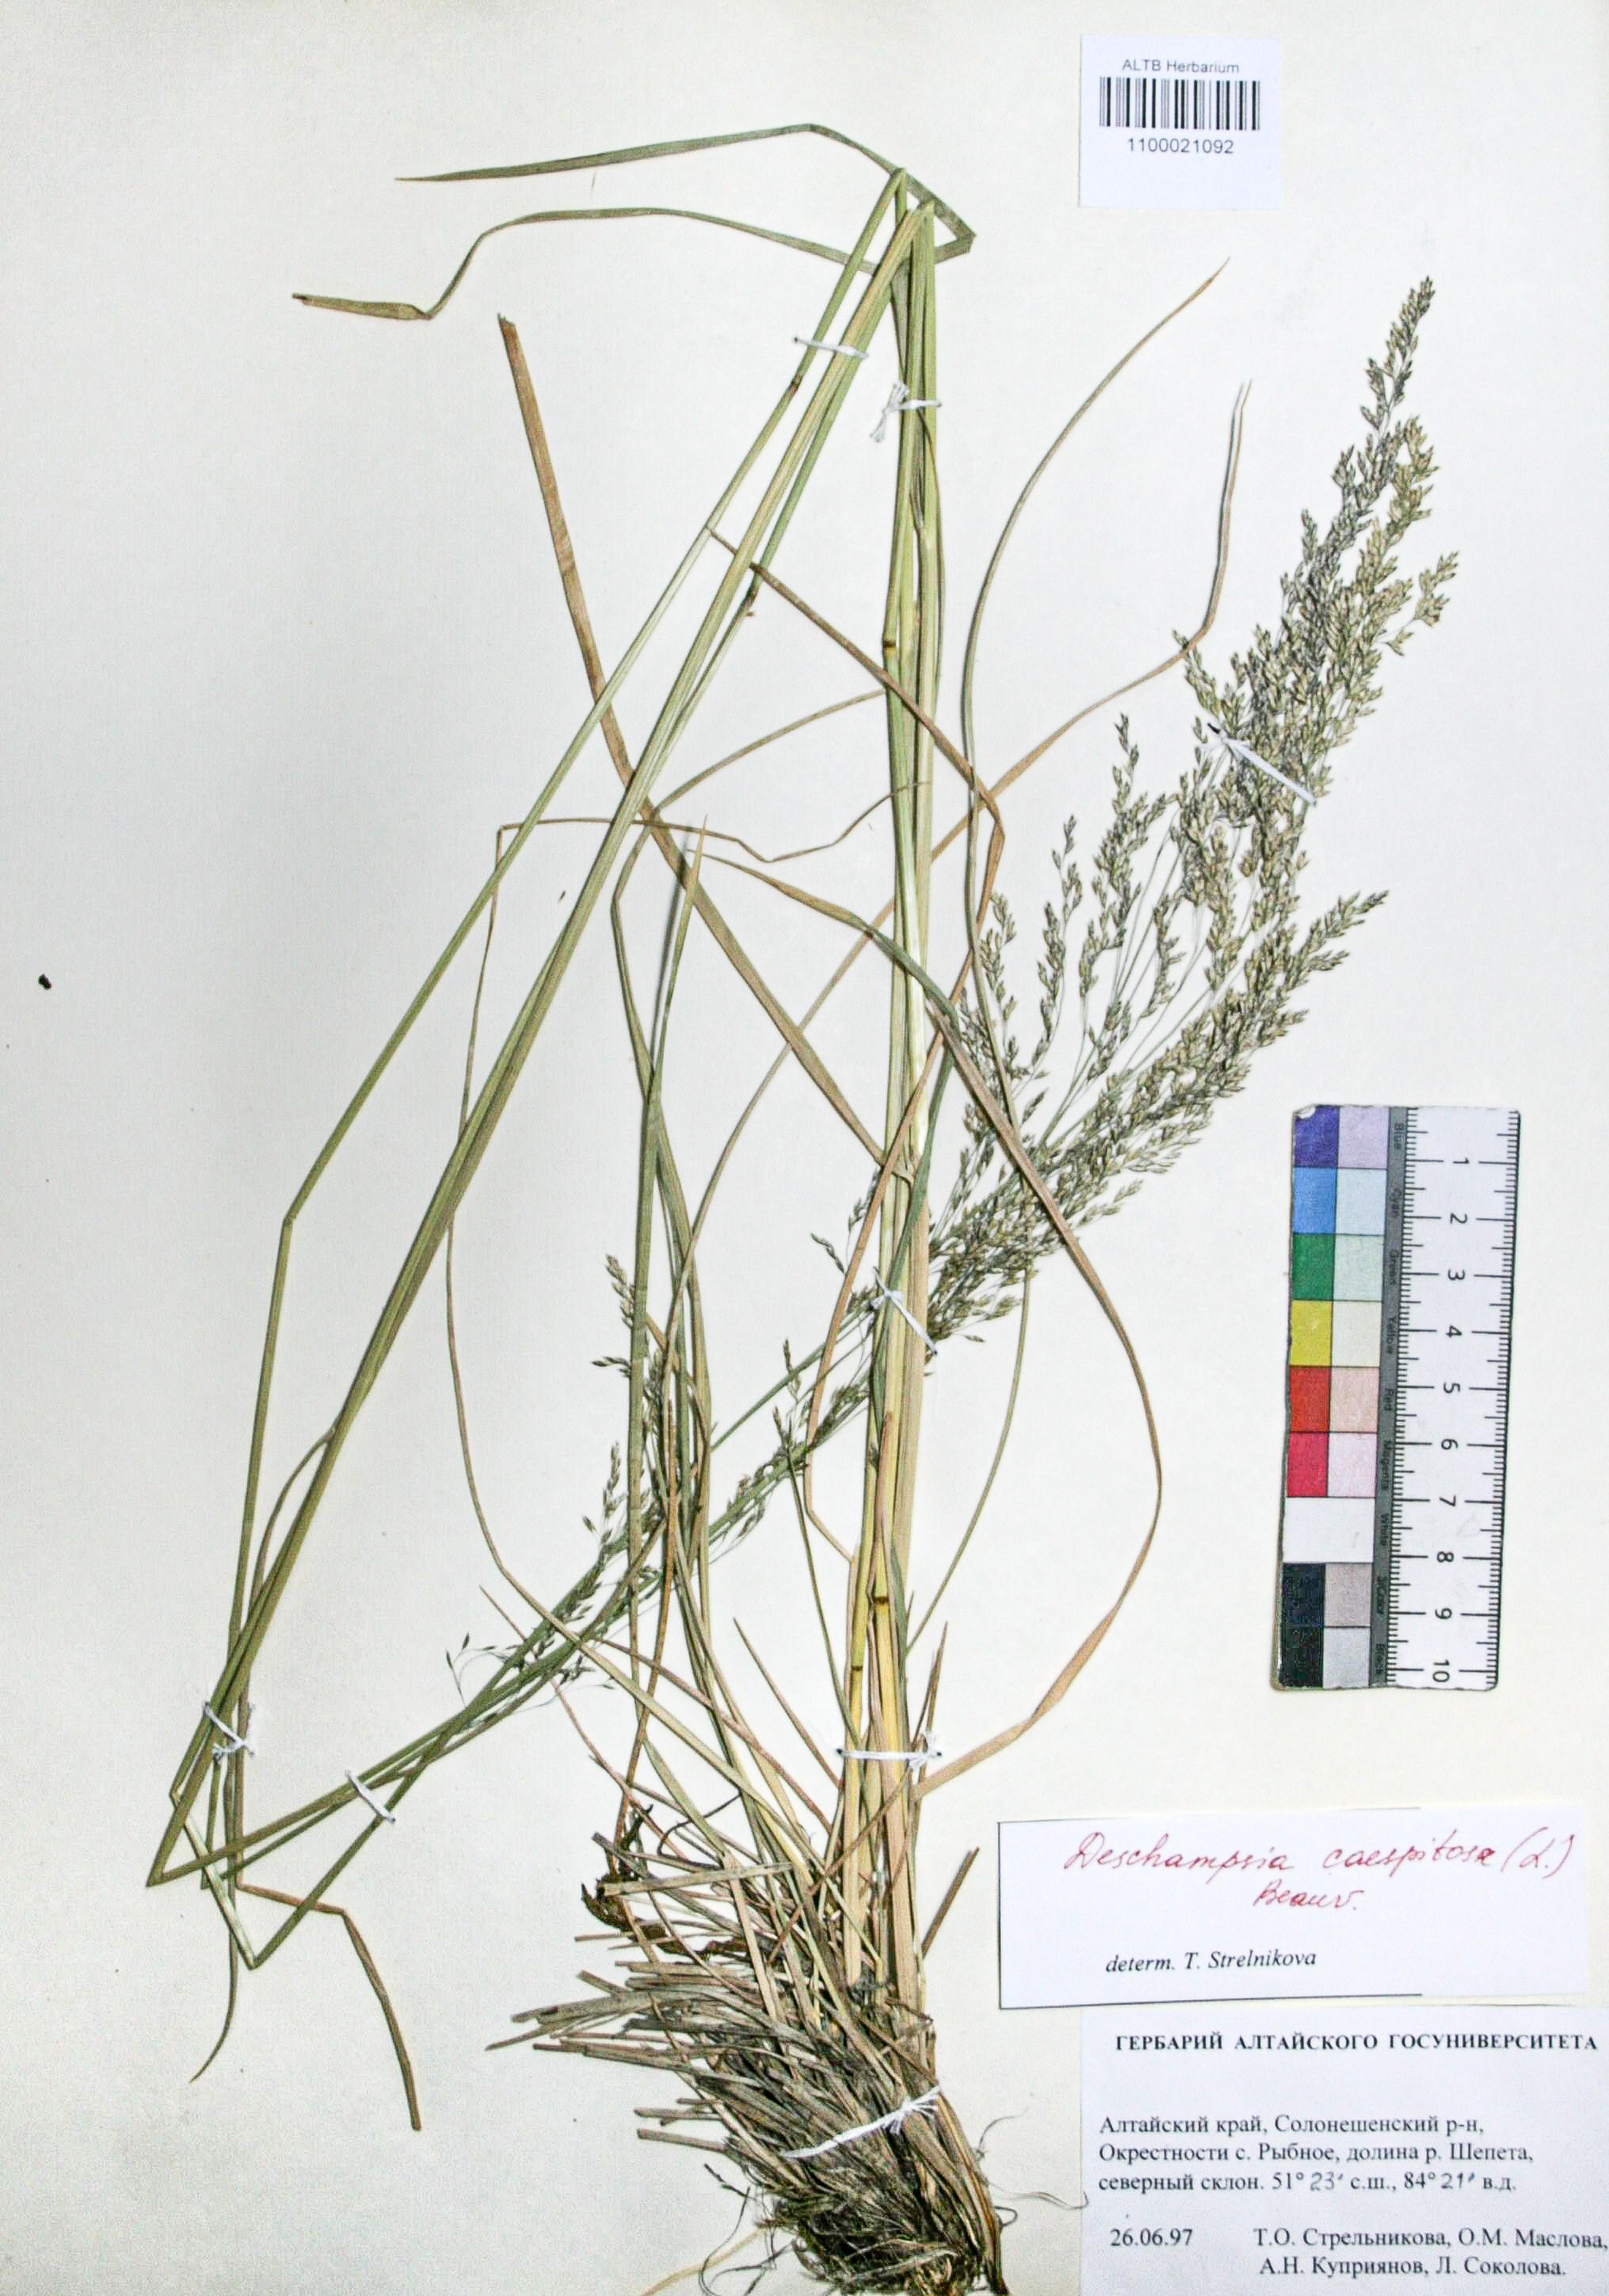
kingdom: Plantae
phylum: Tracheophyta
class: Liliopsida
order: Poales
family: Poaceae
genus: Deschampsia
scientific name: Deschampsia cespitosa
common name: Tufted hair-grass
